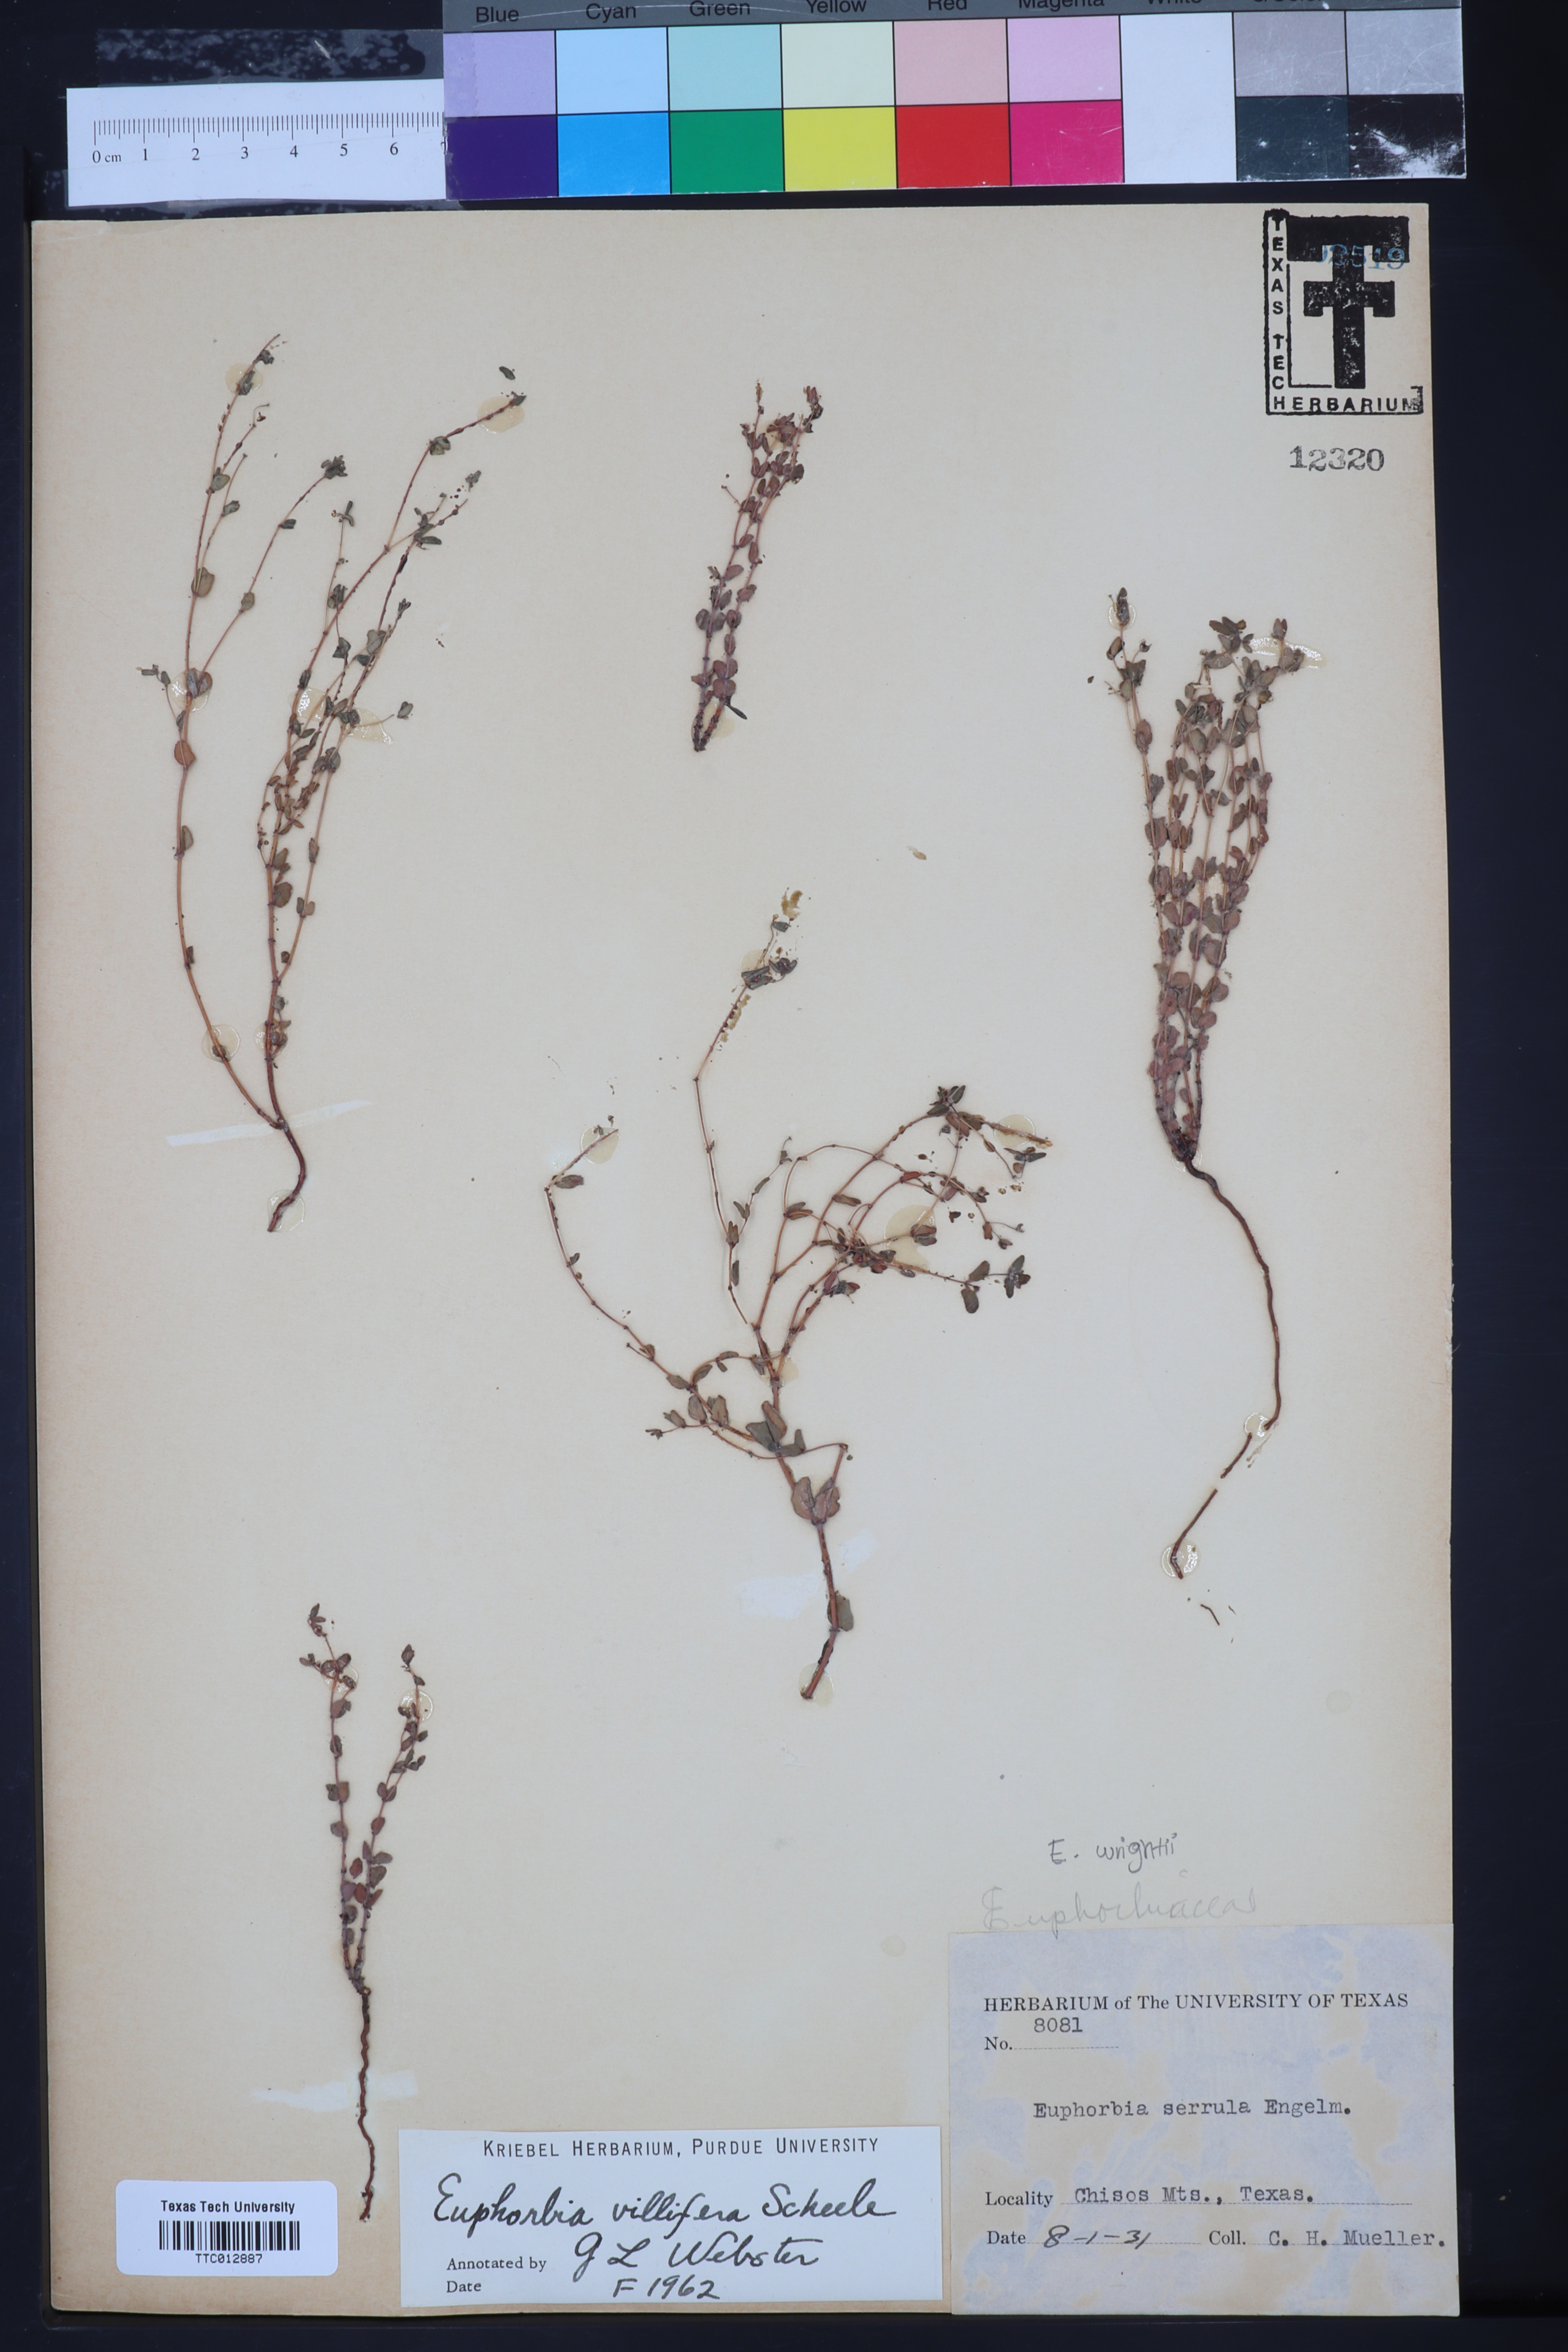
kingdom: Plantae
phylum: Tracheophyta
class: Magnoliopsida
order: Malpighiales
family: Euphorbiaceae
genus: Euphorbia
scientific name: Euphorbia micractina
